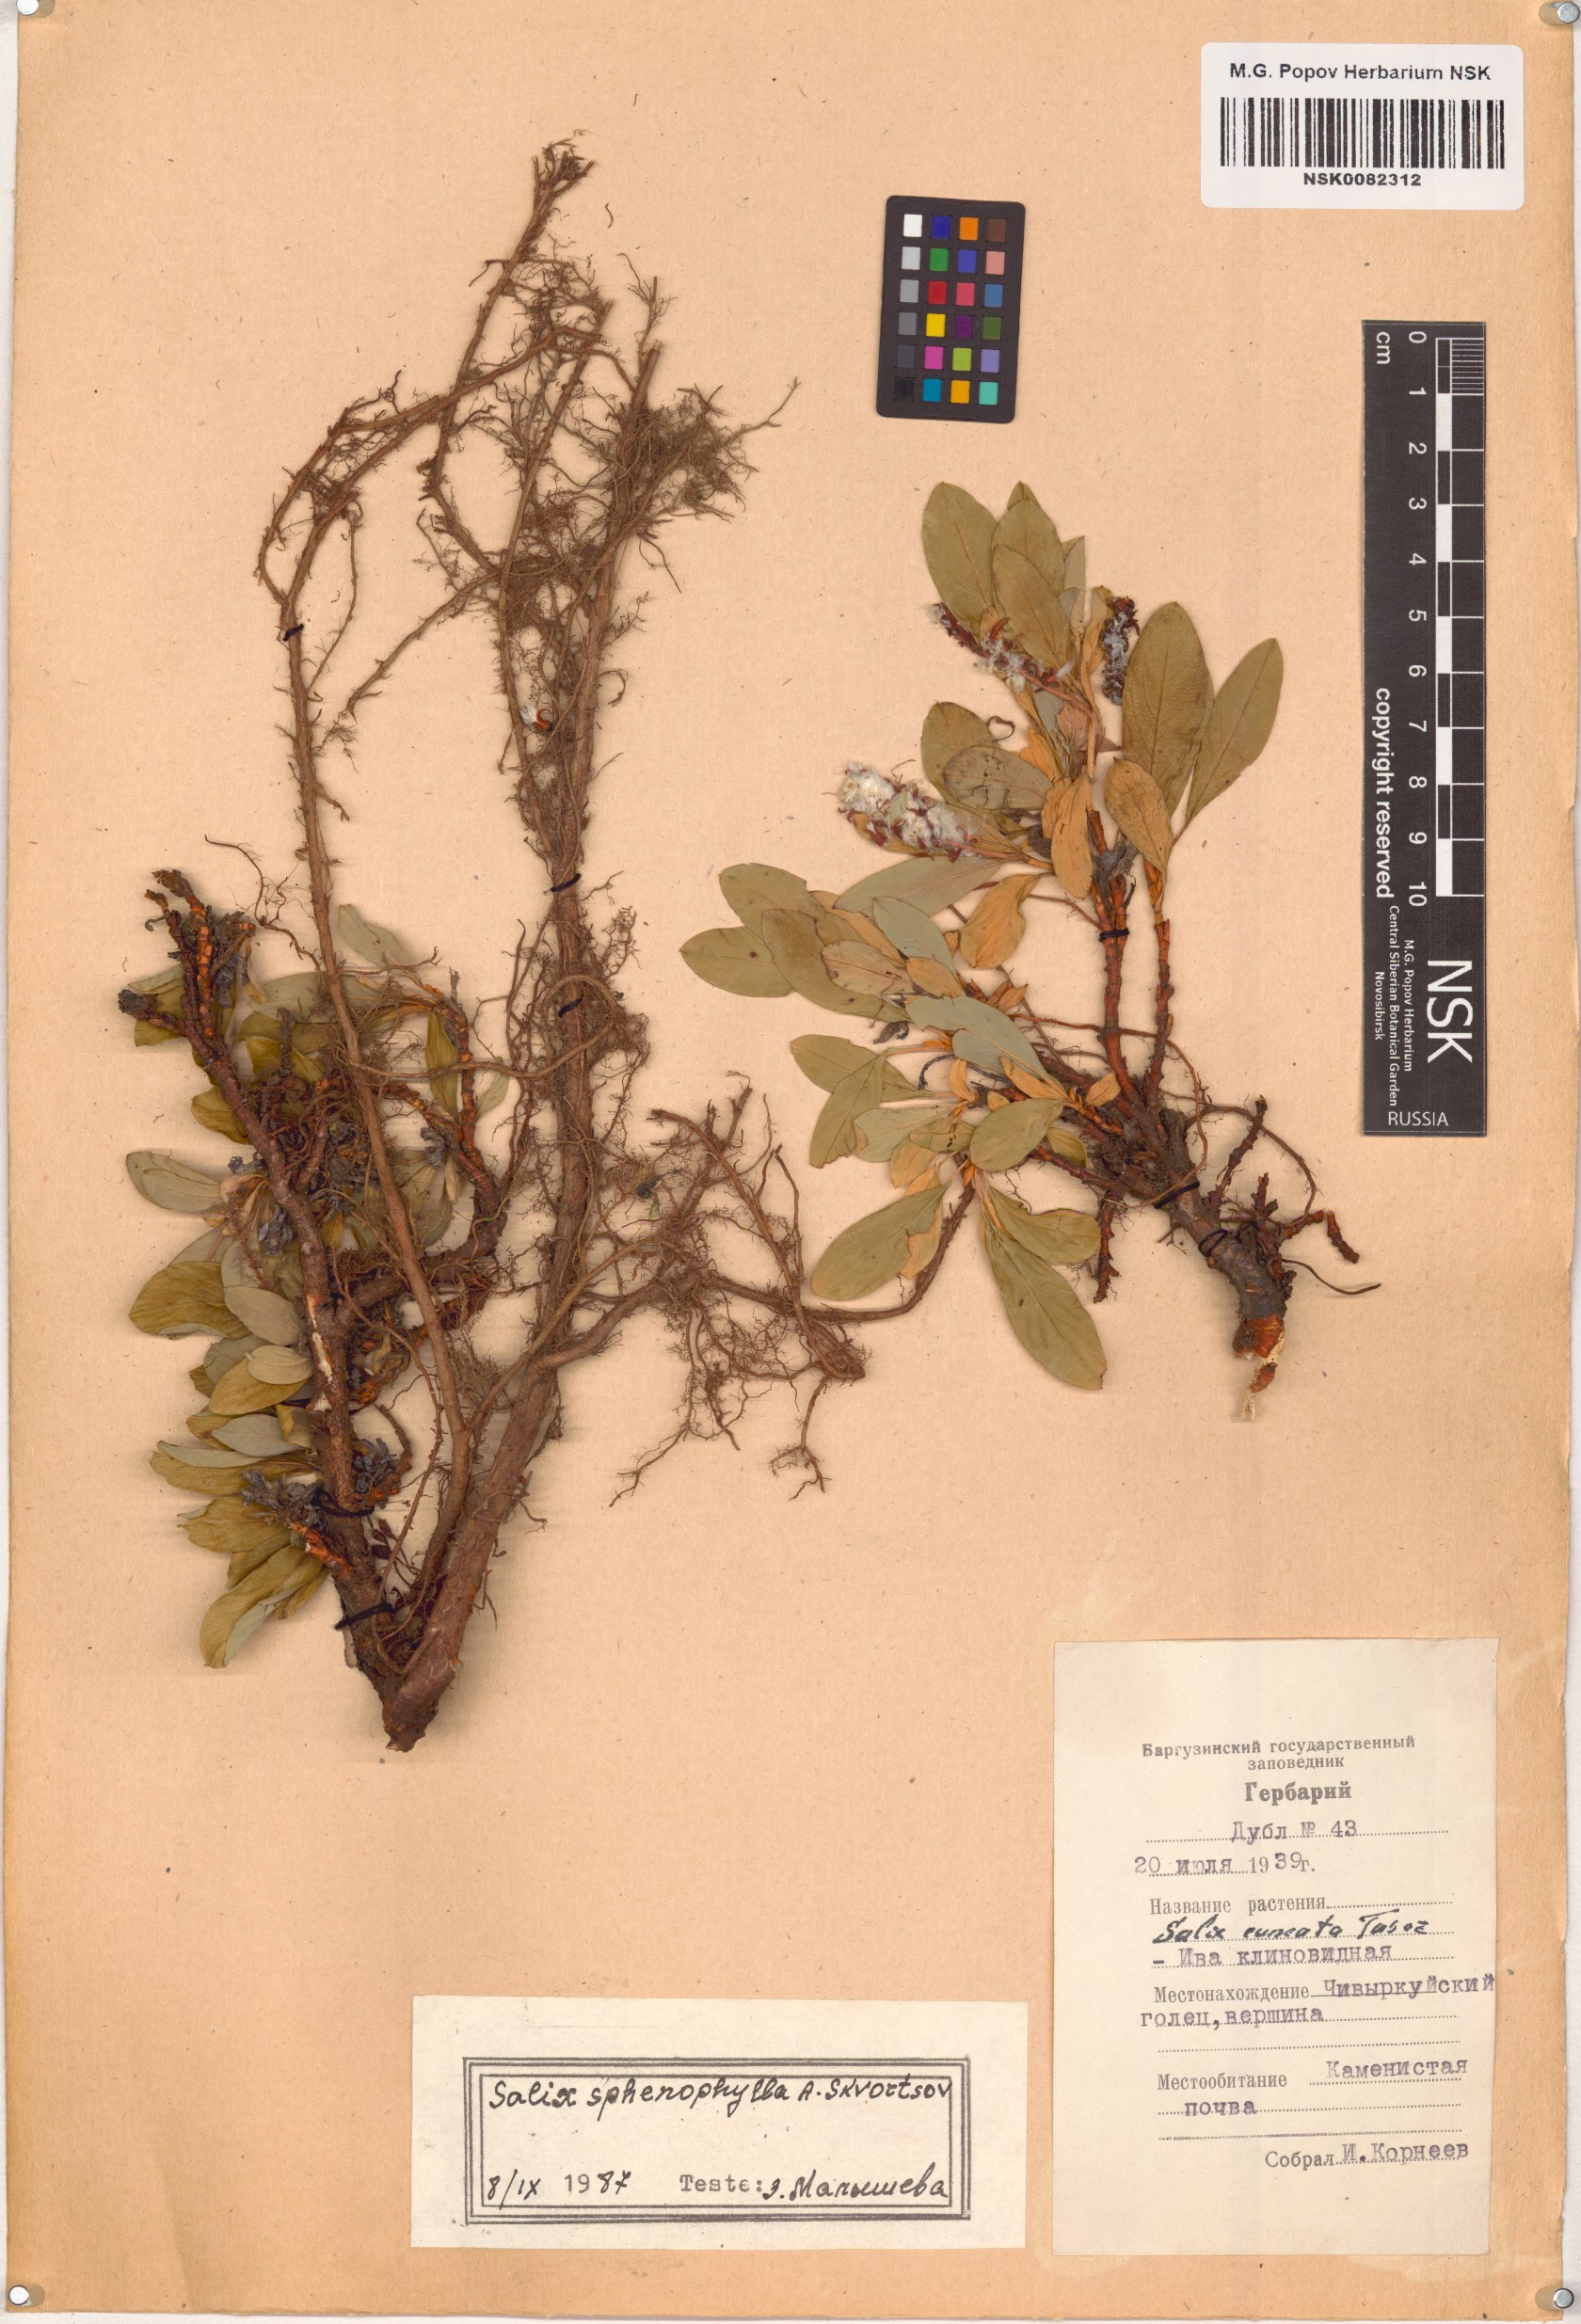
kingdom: Plantae
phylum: Tracheophyta
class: Magnoliopsida
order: Malpighiales
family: Salicaceae
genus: Salix
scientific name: Salix sphenophylla
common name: Wedge-leaved willow
